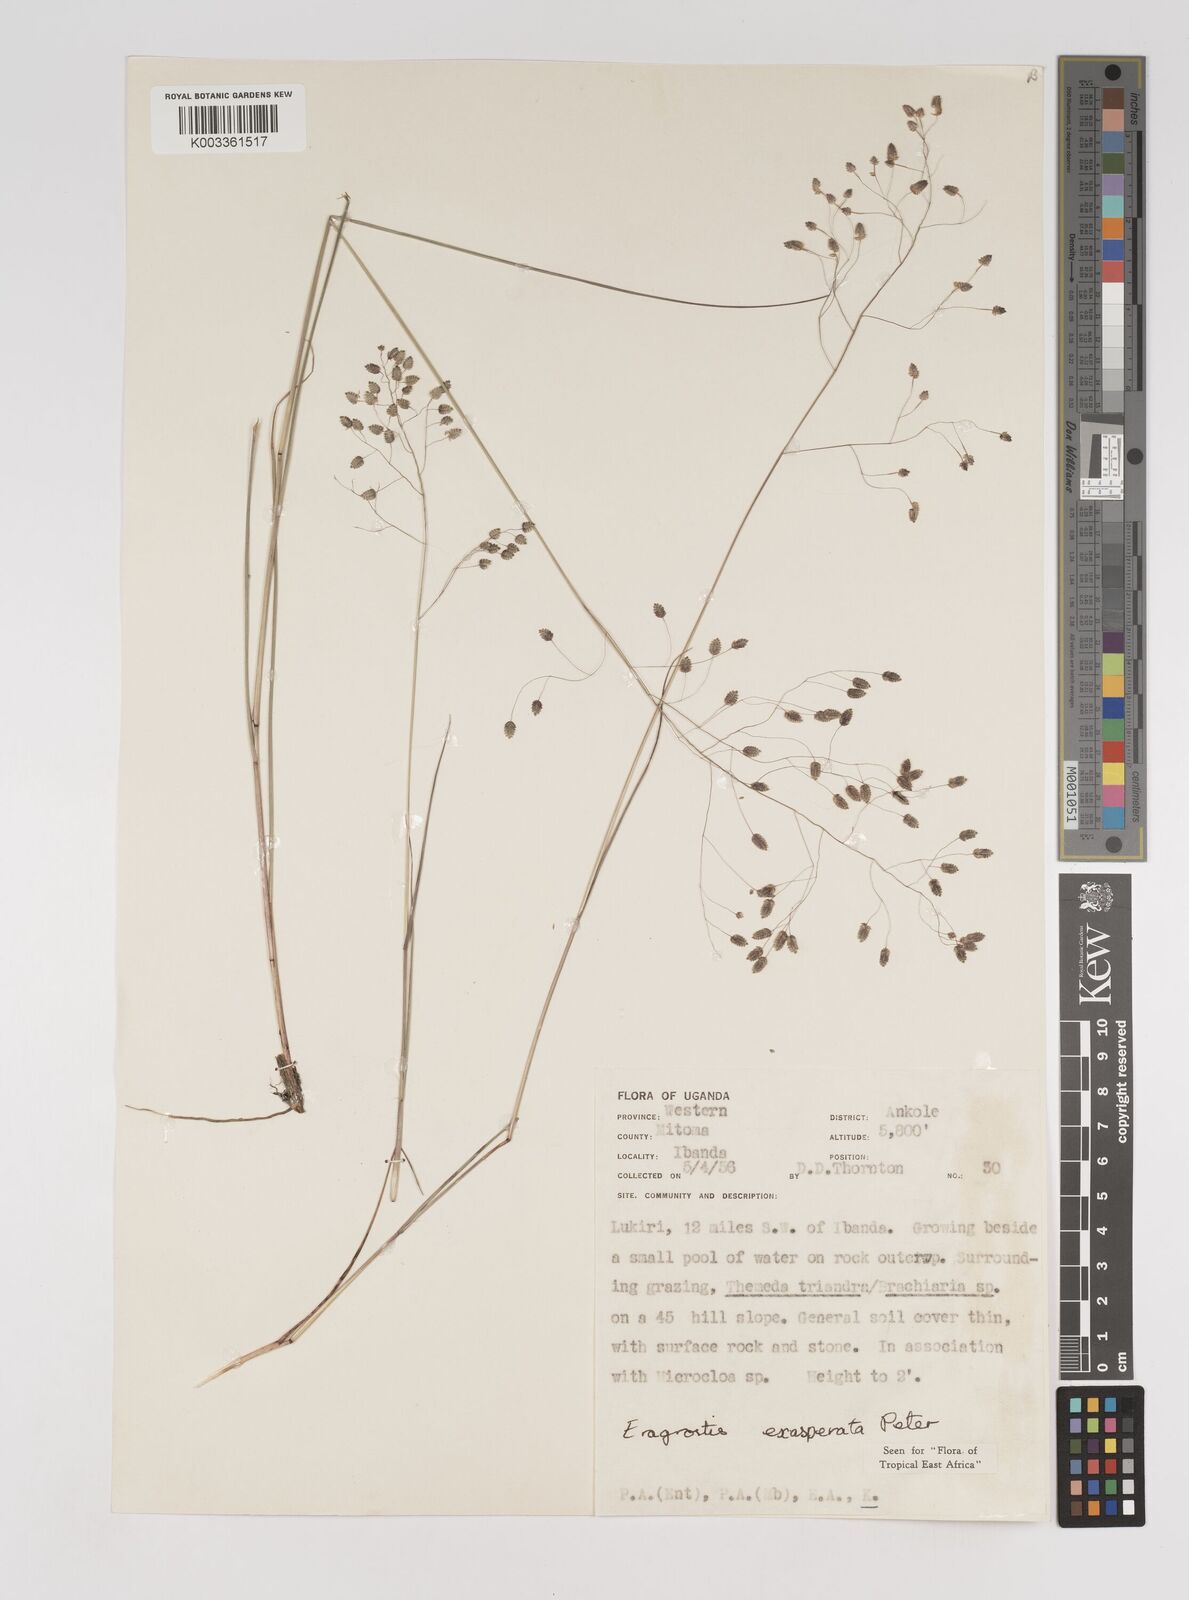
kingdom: Plantae
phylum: Tracheophyta
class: Liliopsida
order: Poales
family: Poaceae
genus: Eragrostis
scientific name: Eragrostis exasperata
